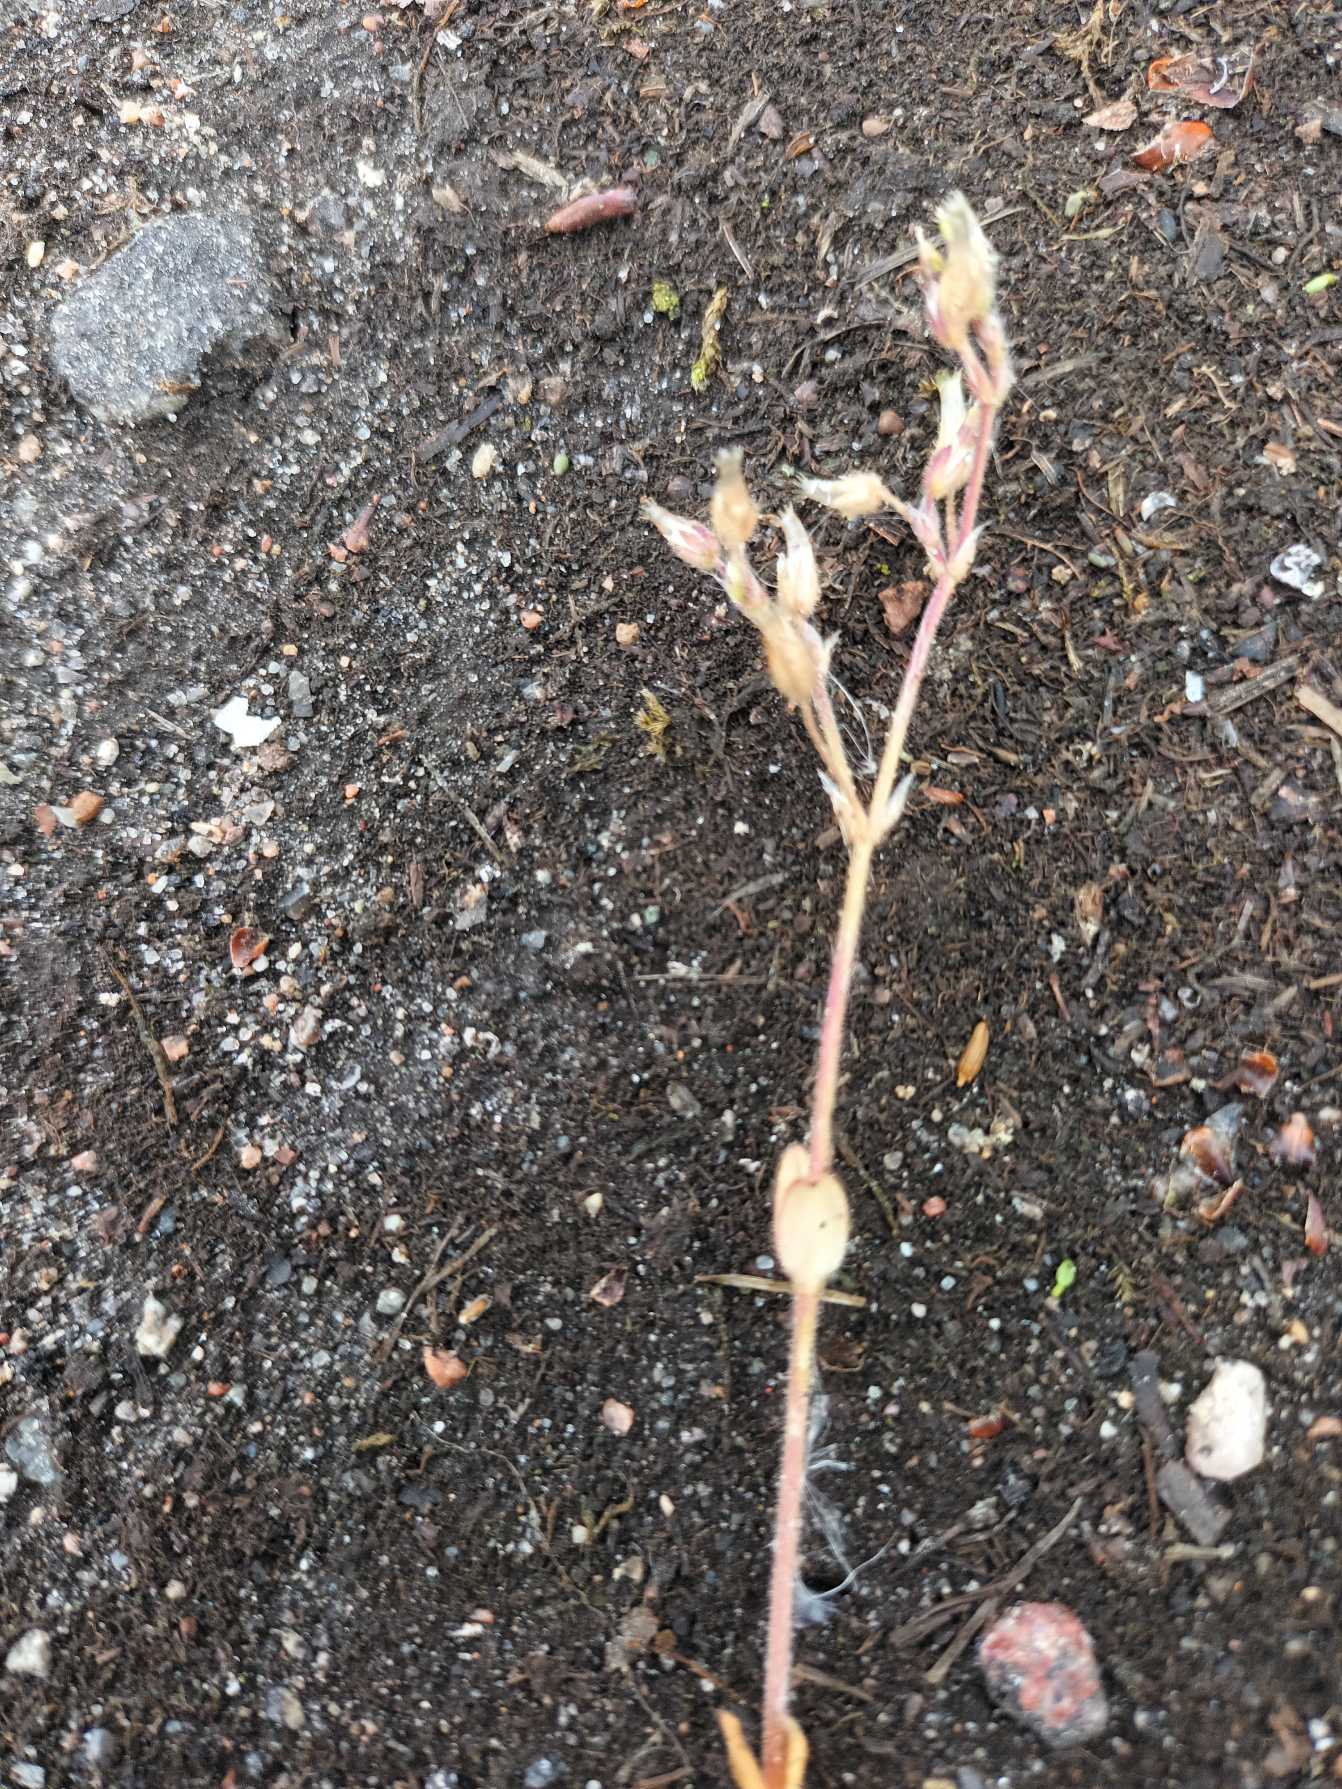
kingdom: Plantae
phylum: Tracheophyta
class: Magnoliopsida
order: Caryophyllales
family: Caryophyllaceae
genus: Cerastium
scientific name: Cerastium semidecandrum
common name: Femhannet hønsetarm
